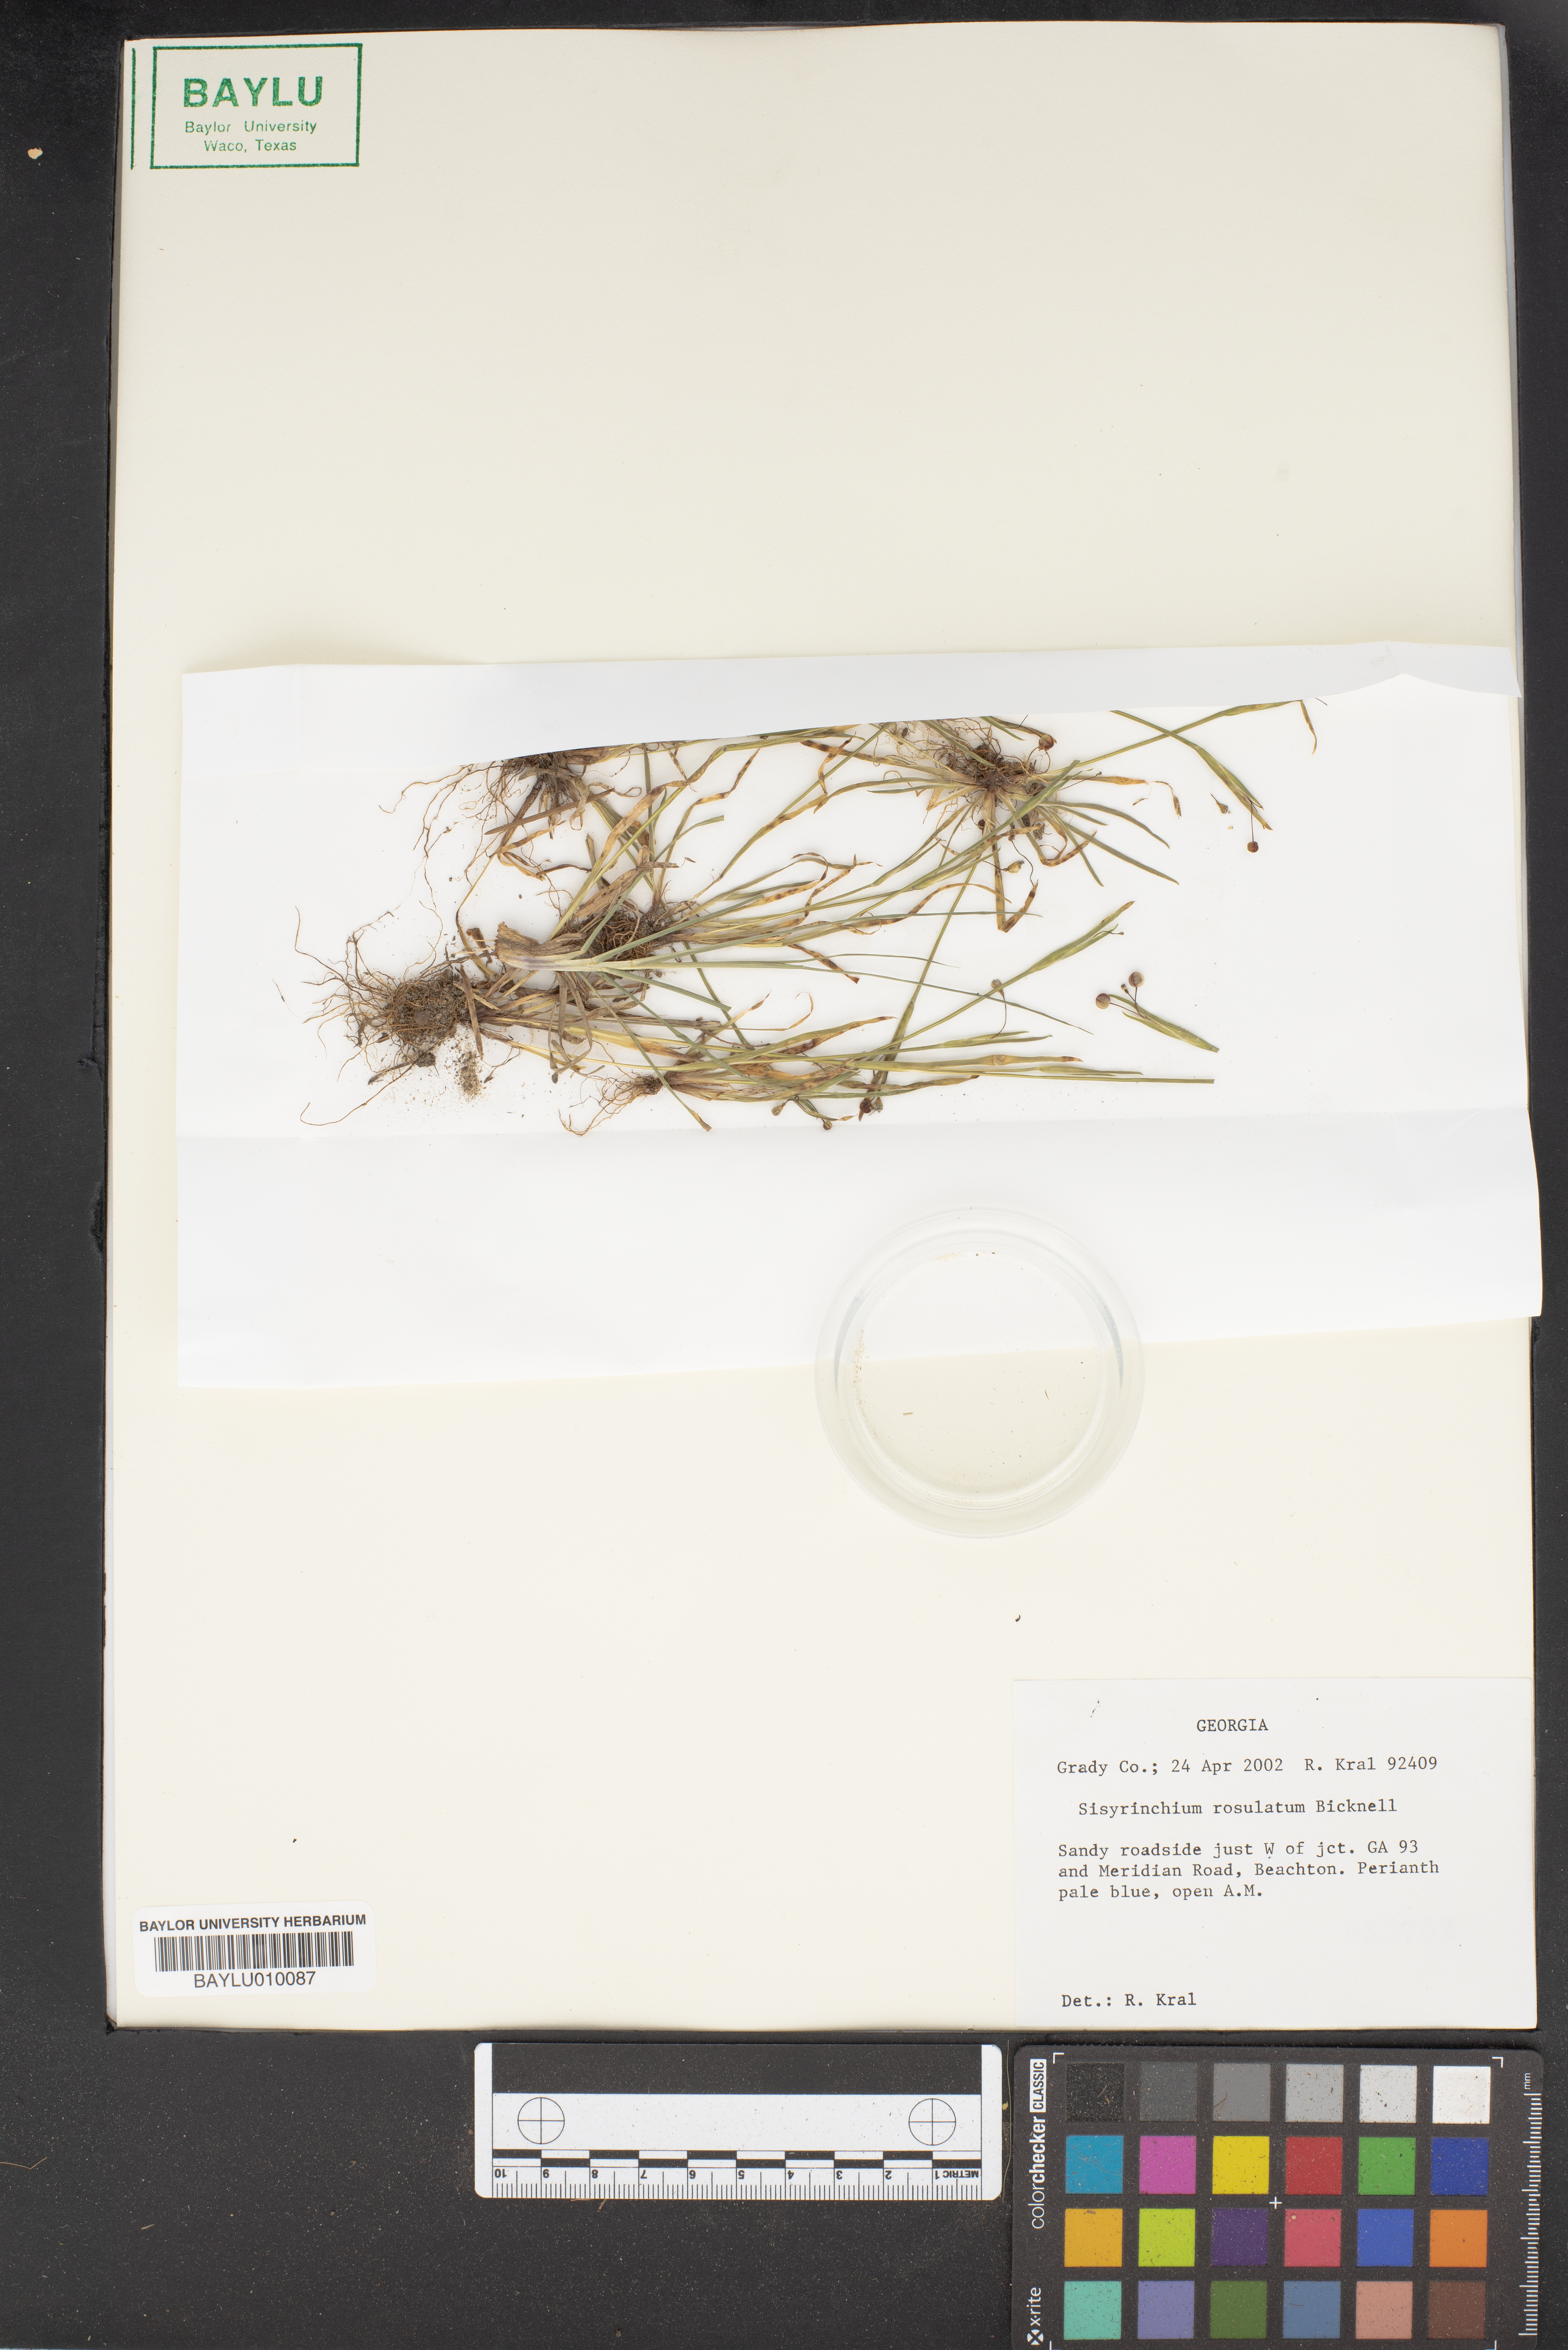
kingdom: Plantae
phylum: Tracheophyta
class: Liliopsida
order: Asparagales
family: Iridaceae
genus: Sisyrinchium
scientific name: Sisyrinchium rosulatum
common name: Annual blue-eyed grass
